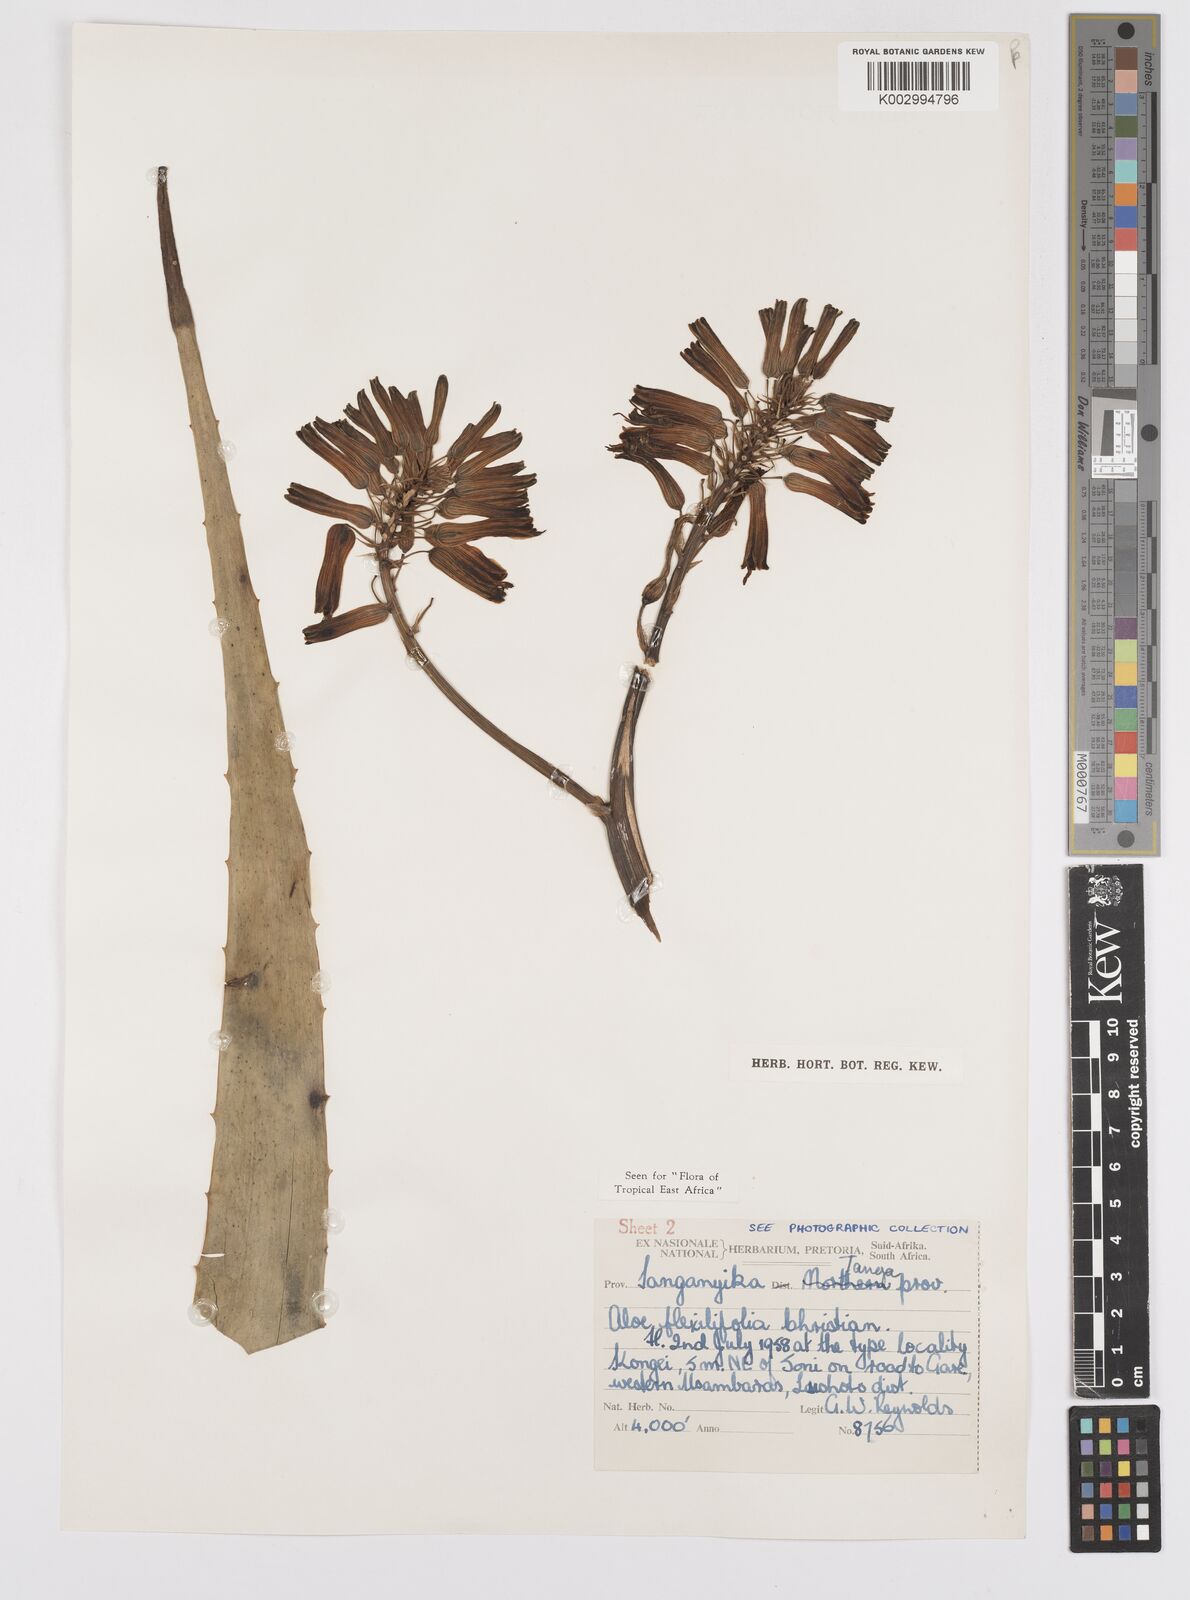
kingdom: Plantae
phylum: Tracheophyta
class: Liliopsida
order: Asparagales
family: Asphodelaceae
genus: Aloe
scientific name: Aloe flexilifolia
